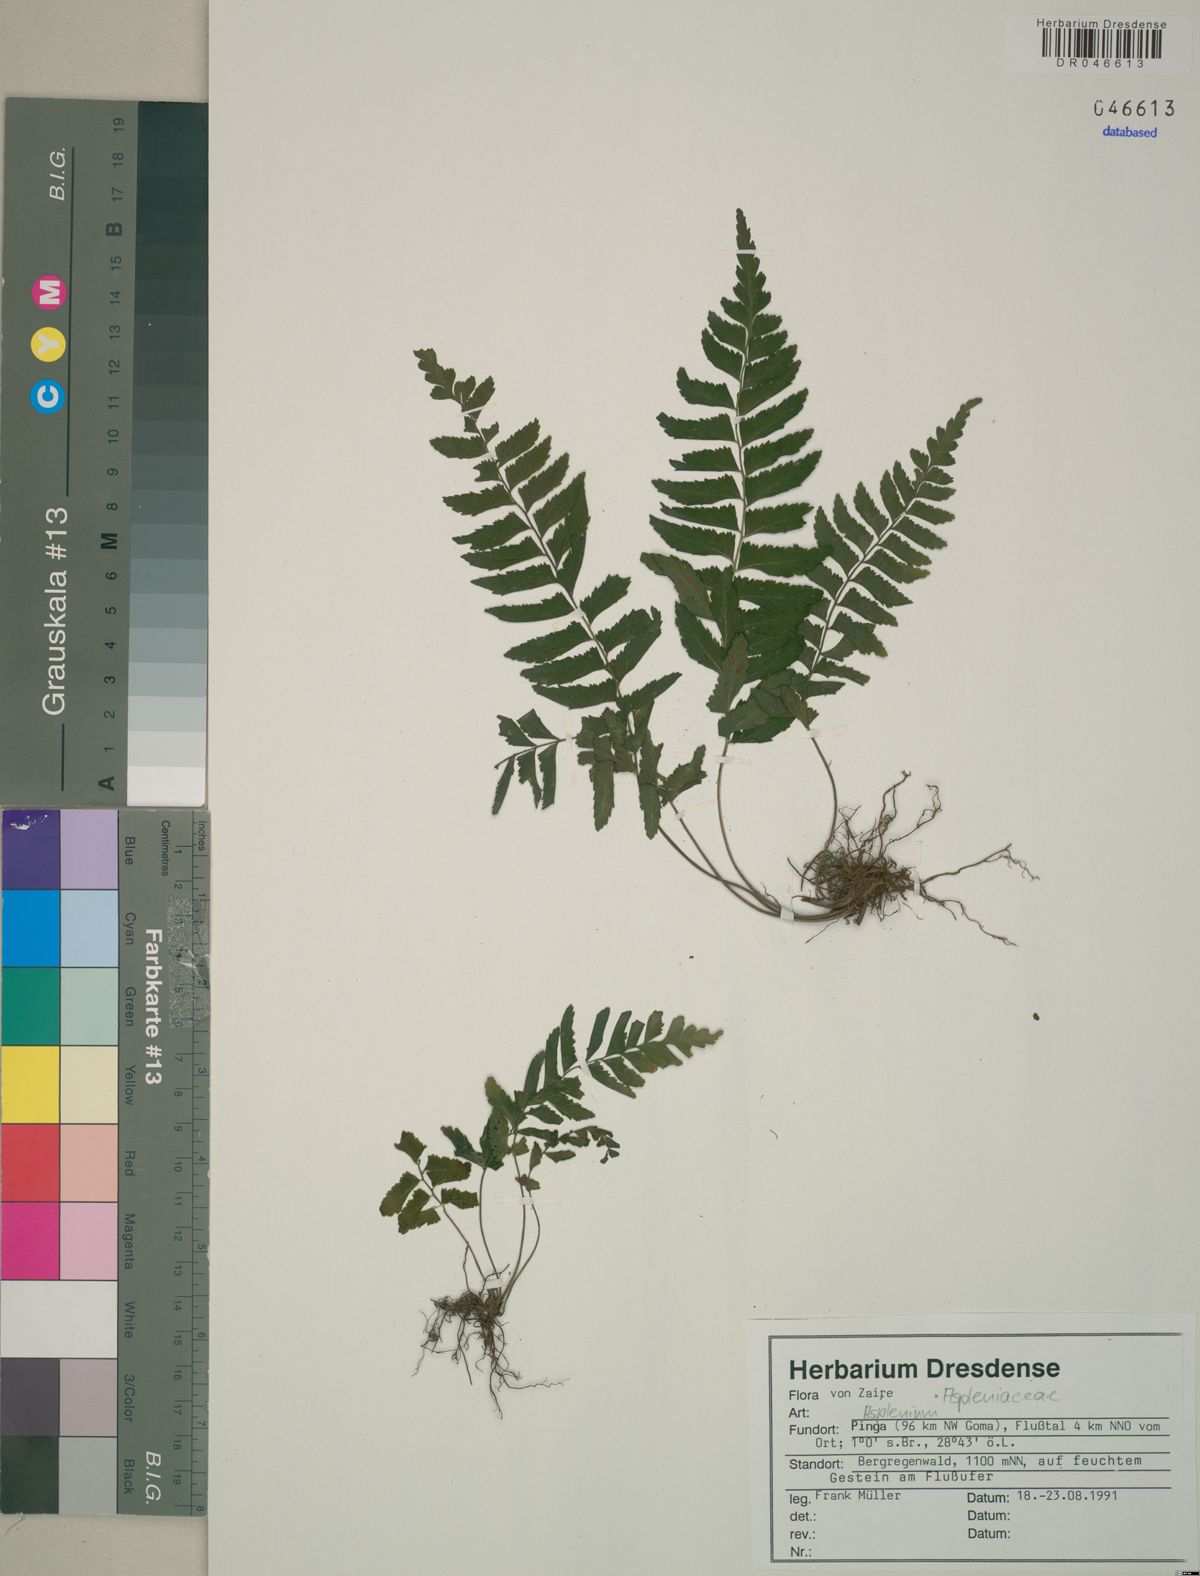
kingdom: Plantae
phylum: Tracheophyta
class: Polypodiopsida
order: Polypodiales
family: Aspleniaceae
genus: Asplenium
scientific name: Asplenium
